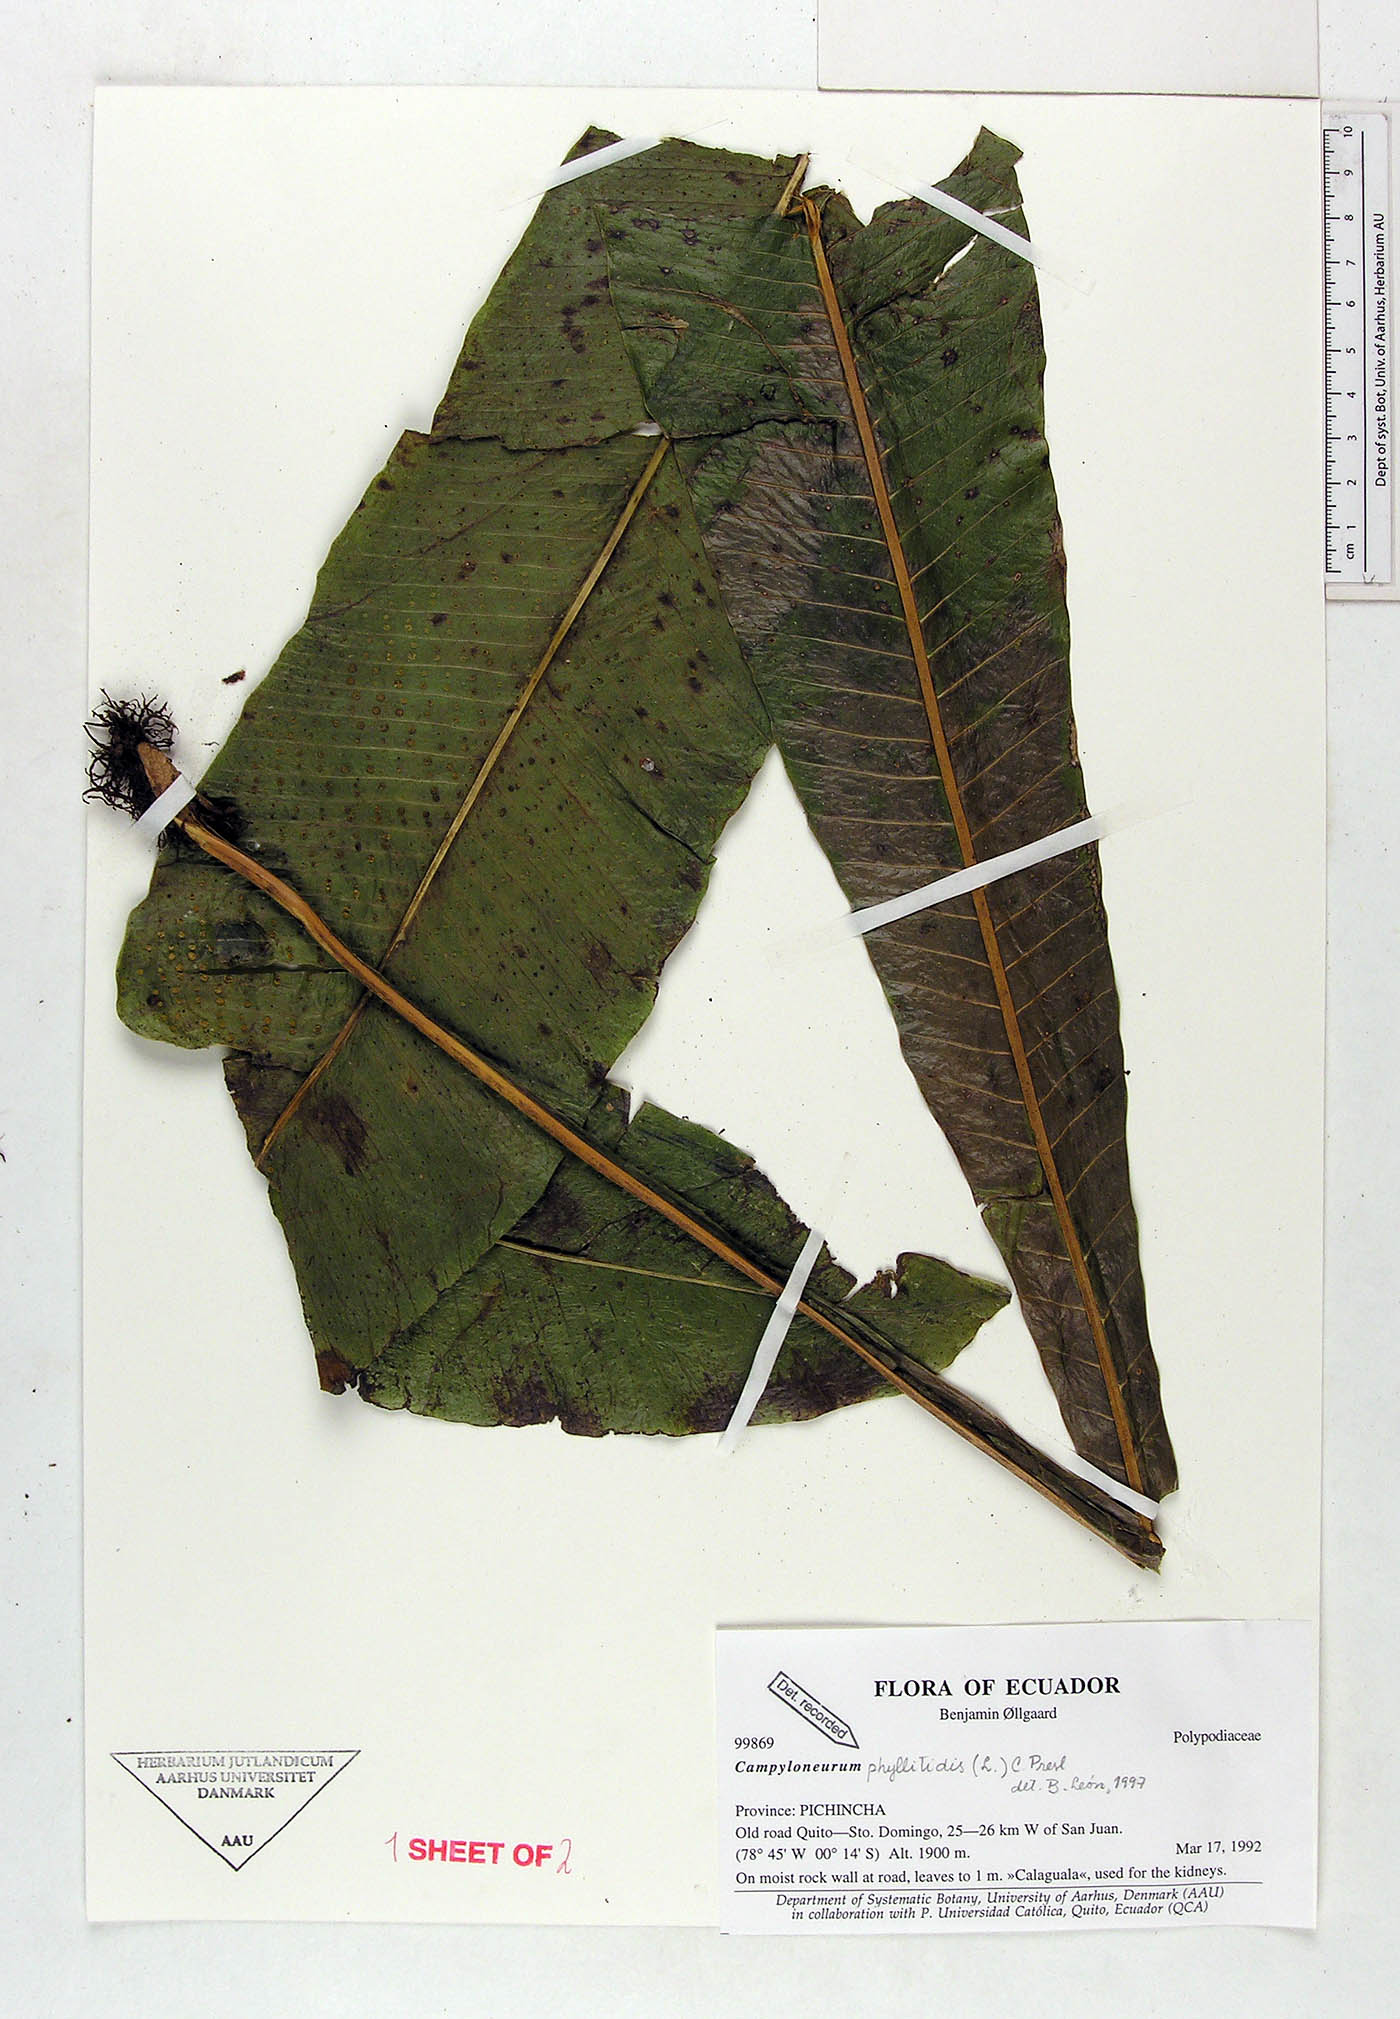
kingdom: Plantae
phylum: Tracheophyta
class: Polypodiopsida
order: Polypodiales
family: Polypodiaceae
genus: Campyloneurum
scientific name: Campyloneurum phyllitidis
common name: Cow-tongue fern
